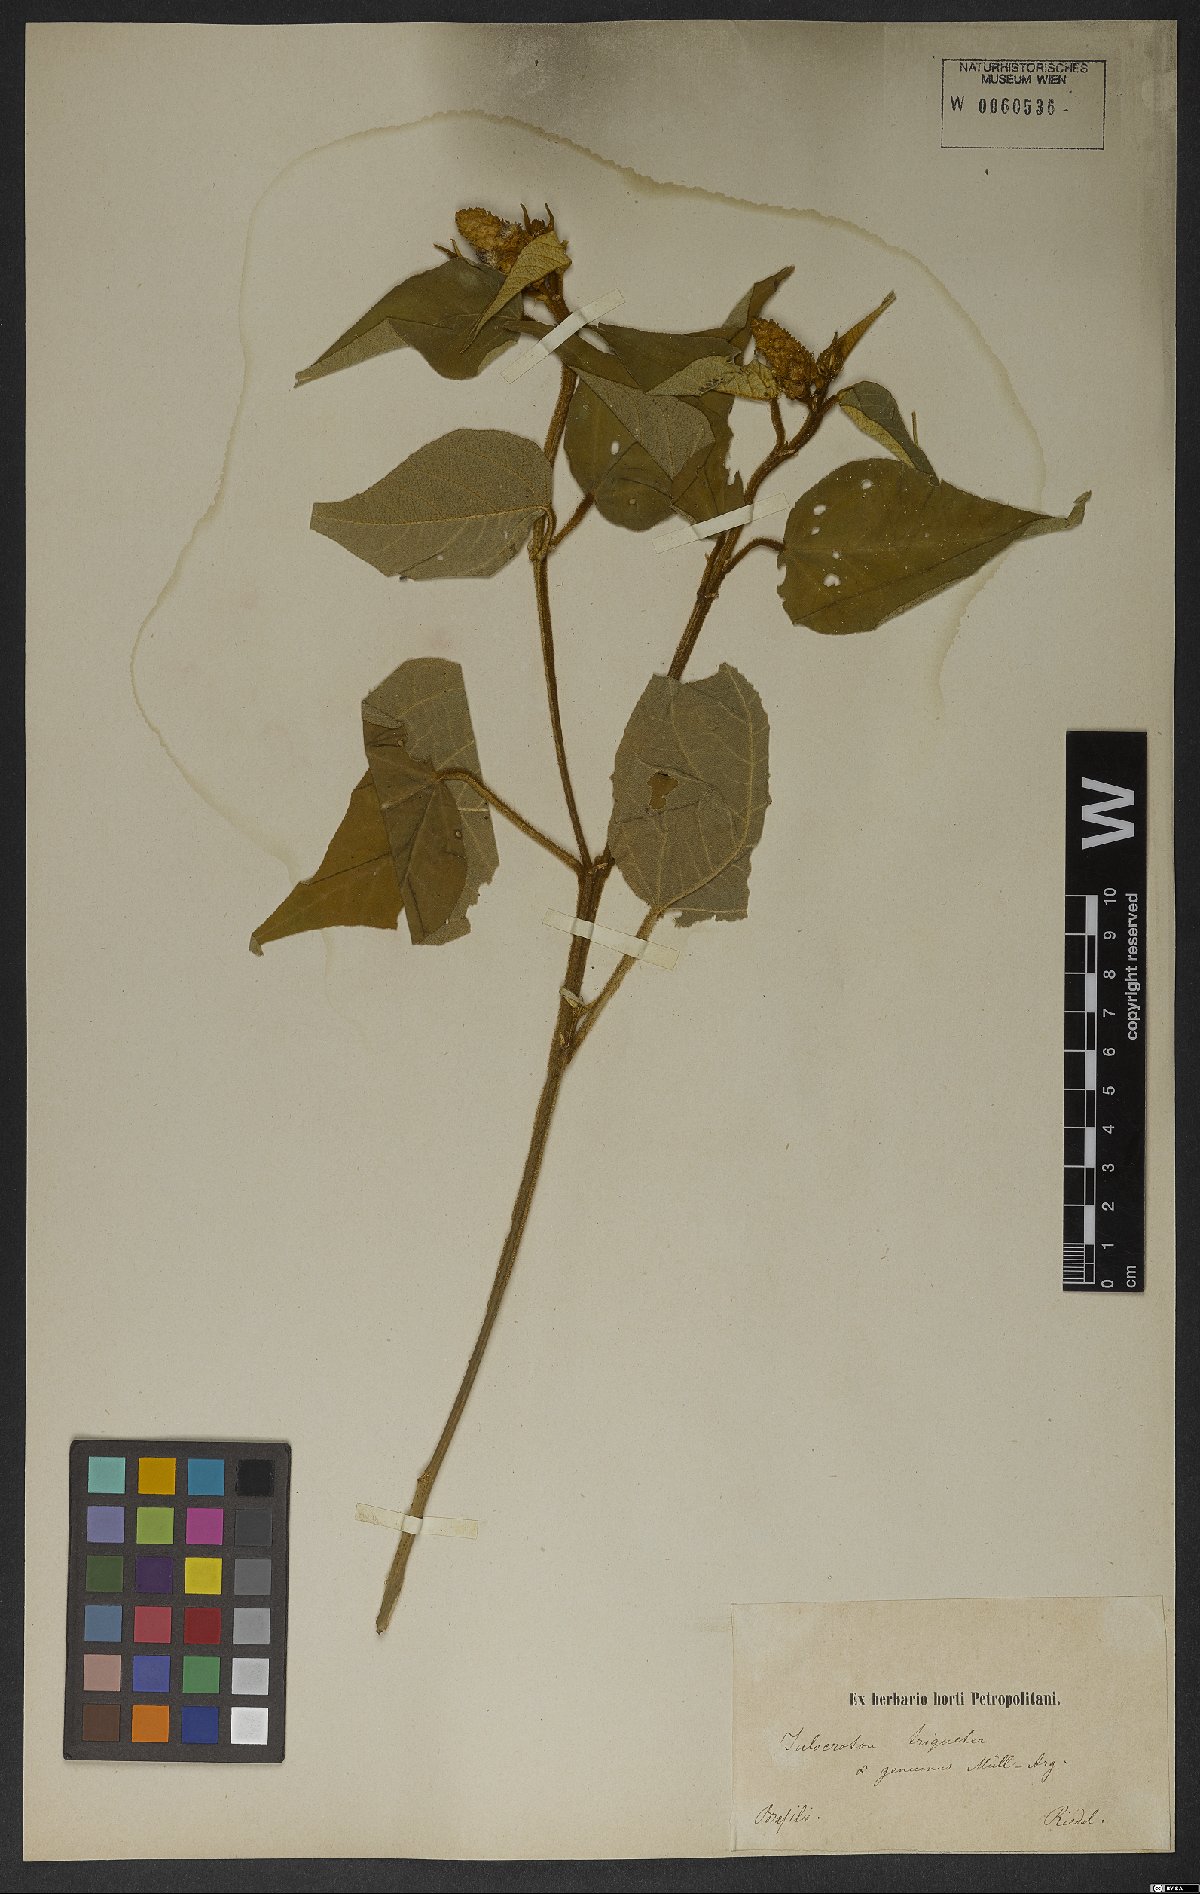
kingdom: Plantae
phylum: Tracheophyta
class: Magnoliopsida
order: Malpighiales
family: Euphorbiaceae
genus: Croton
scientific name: Croton triqueter
